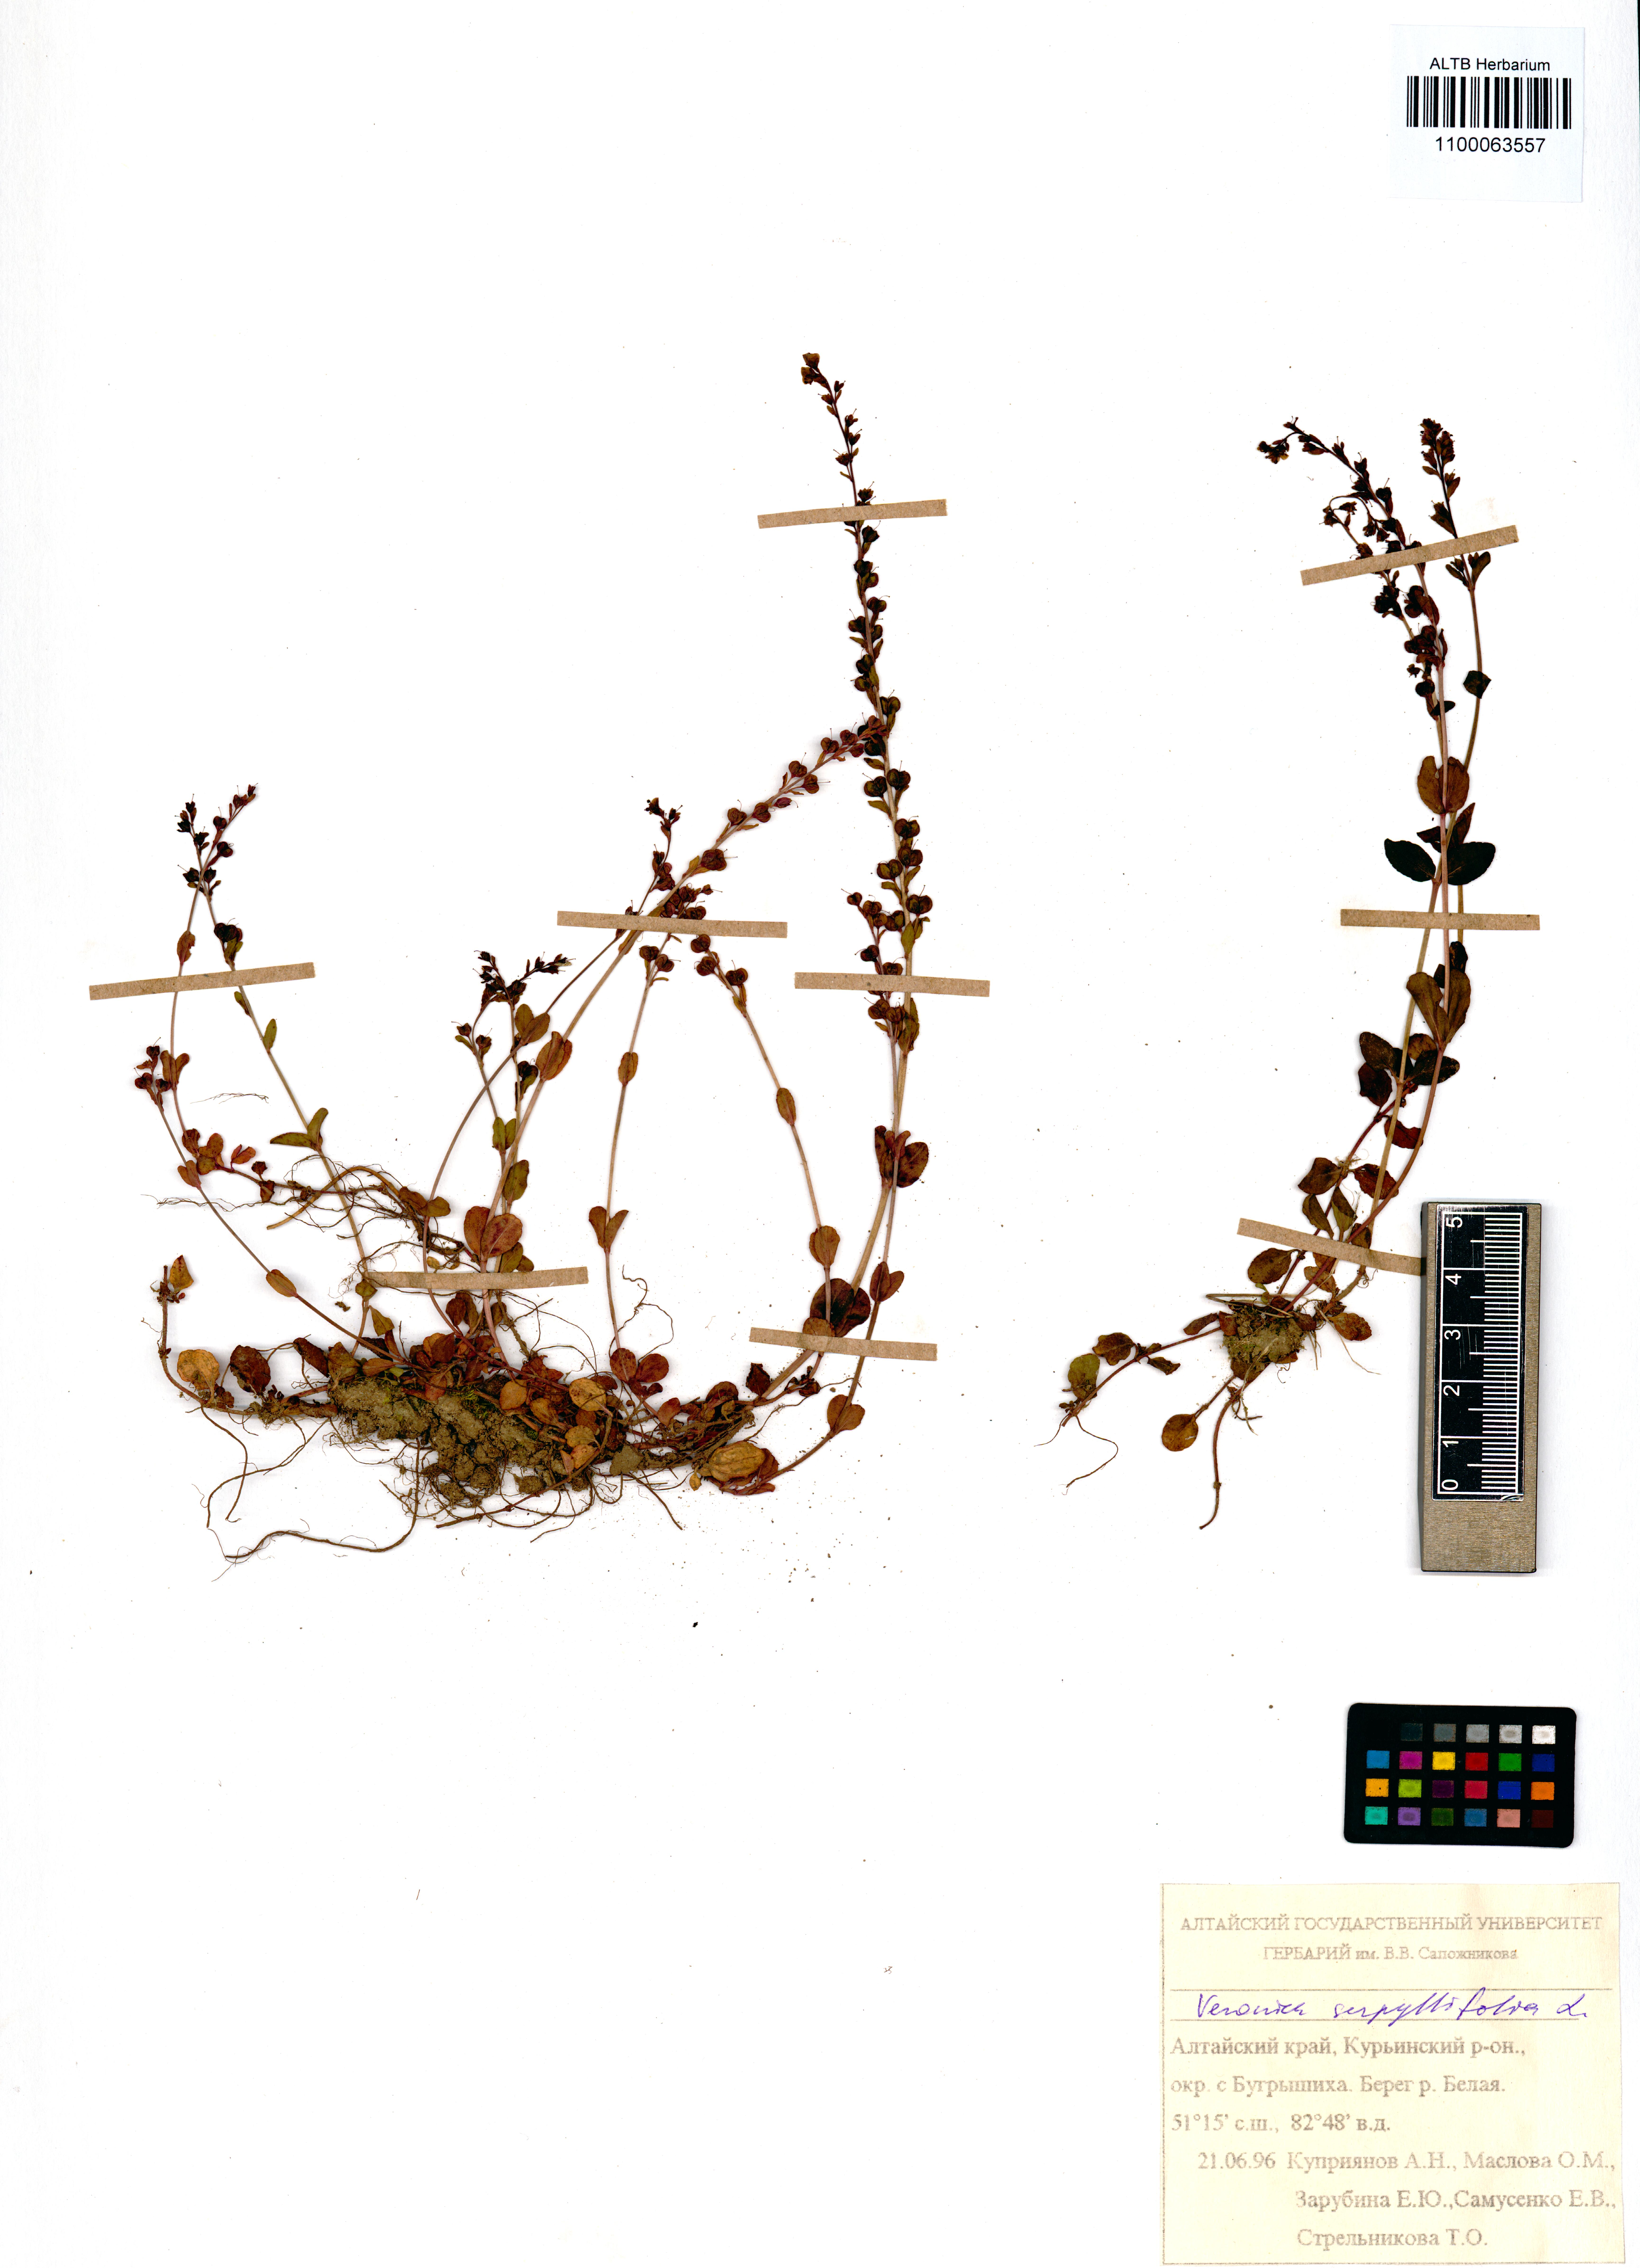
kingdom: Plantae
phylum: Tracheophyta
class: Magnoliopsida
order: Lamiales
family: Plantaginaceae
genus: Veronica
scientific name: Veronica serpyllifolia
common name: Thyme-leaved speedwell
